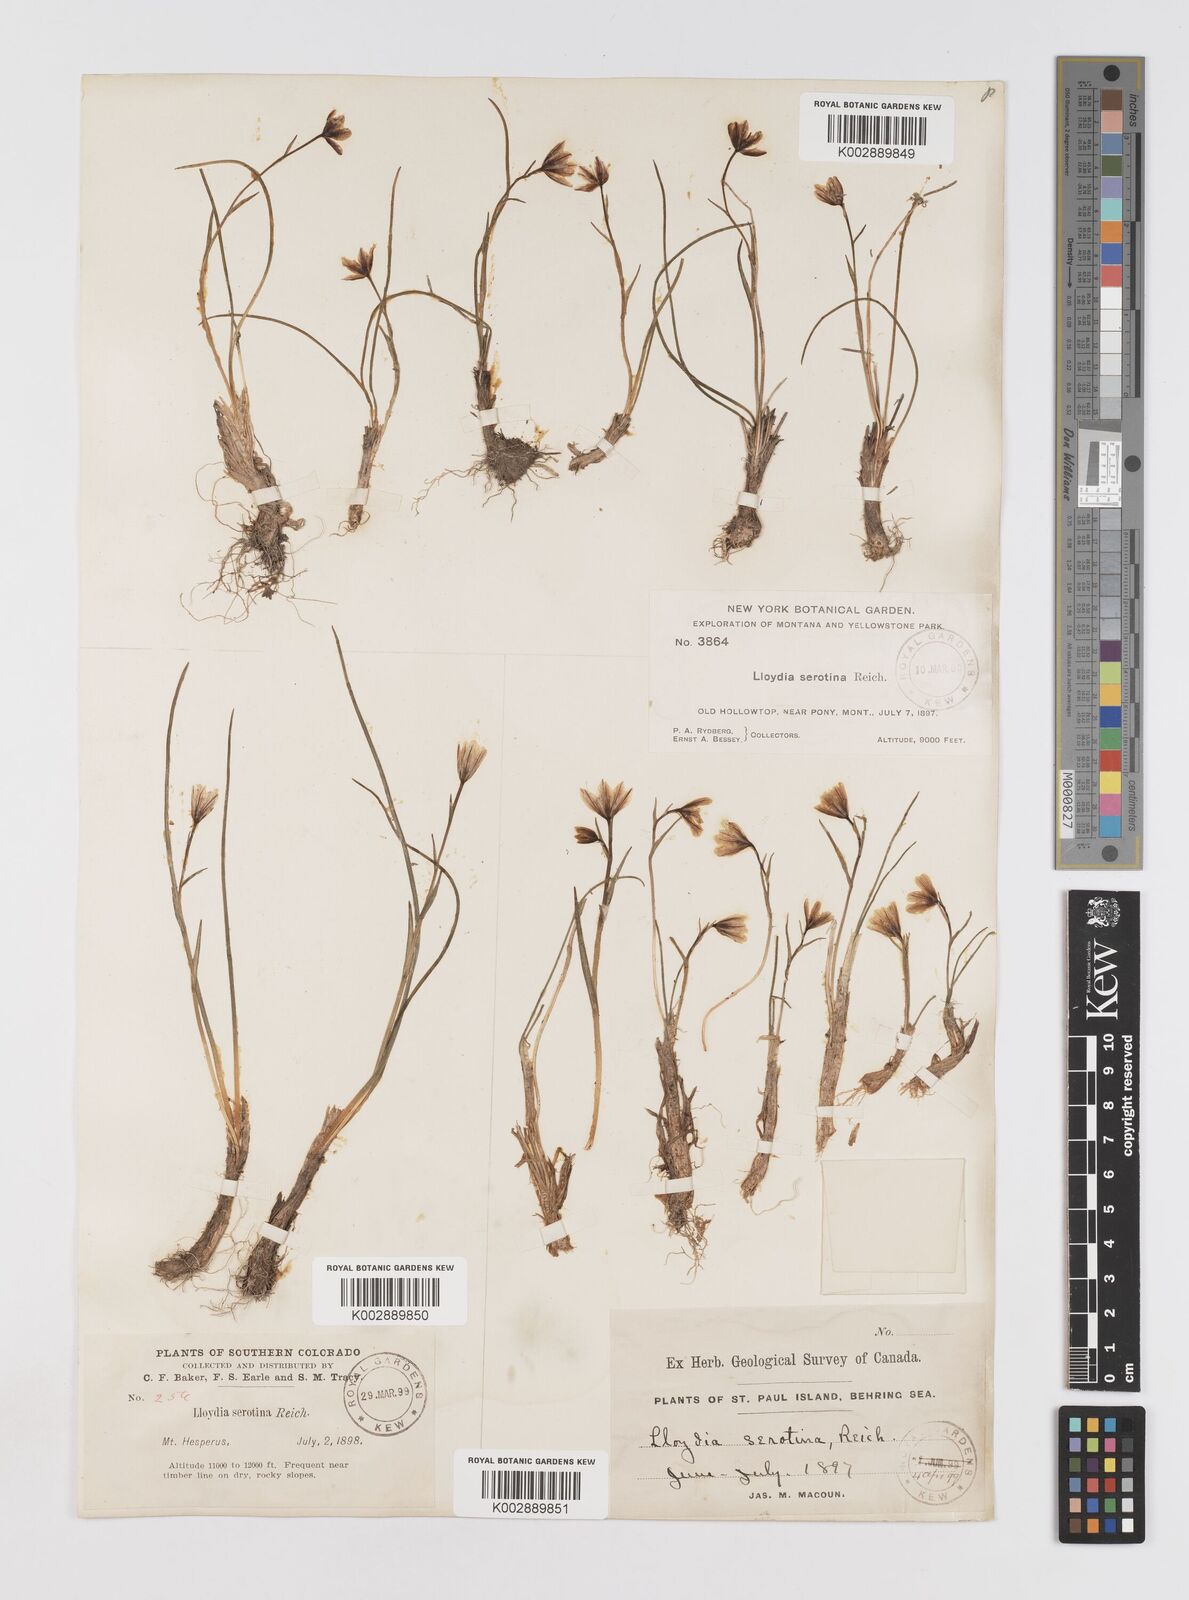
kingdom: Plantae
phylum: Tracheophyta
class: Liliopsida
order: Liliales
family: Liliaceae
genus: Gagea
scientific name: Gagea serotina
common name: Snowdon lily
